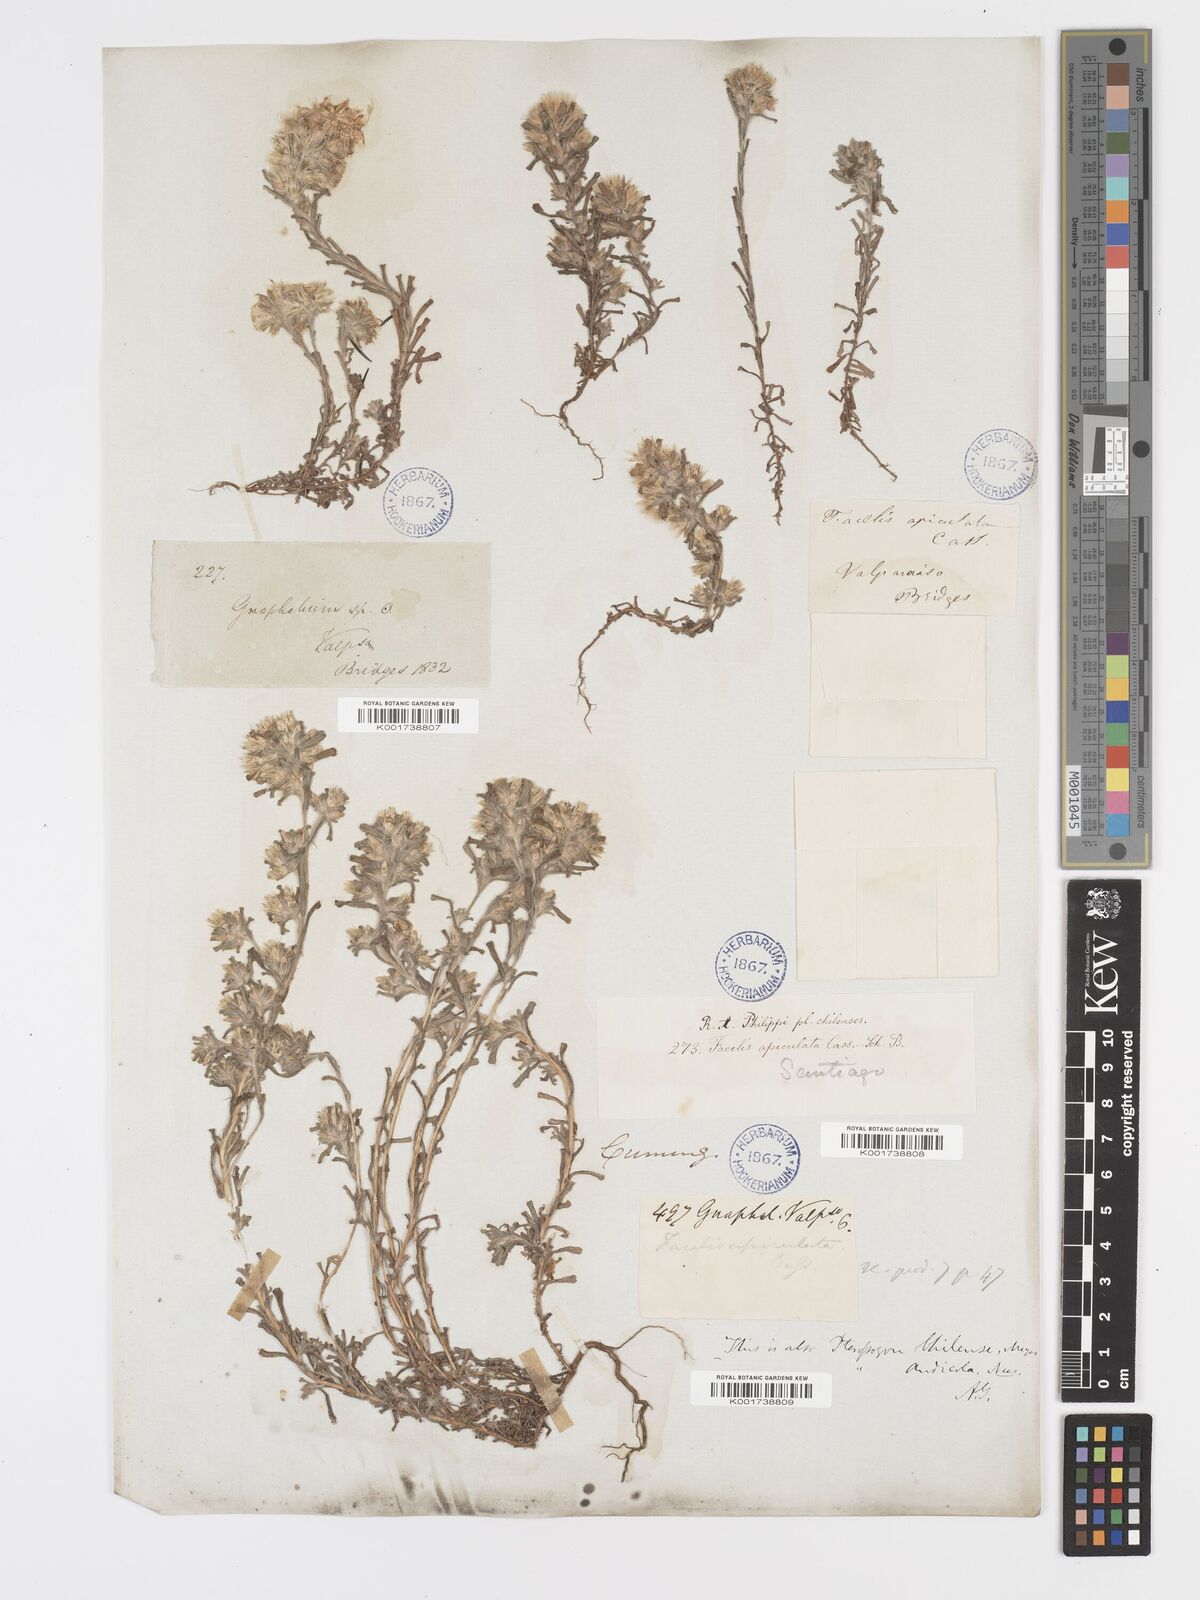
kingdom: Plantae
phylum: Tracheophyta
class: Magnoliopsida
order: Asterales
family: Asteraceae
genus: Facelis
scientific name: Facelis retusa
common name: Annual trampweed
